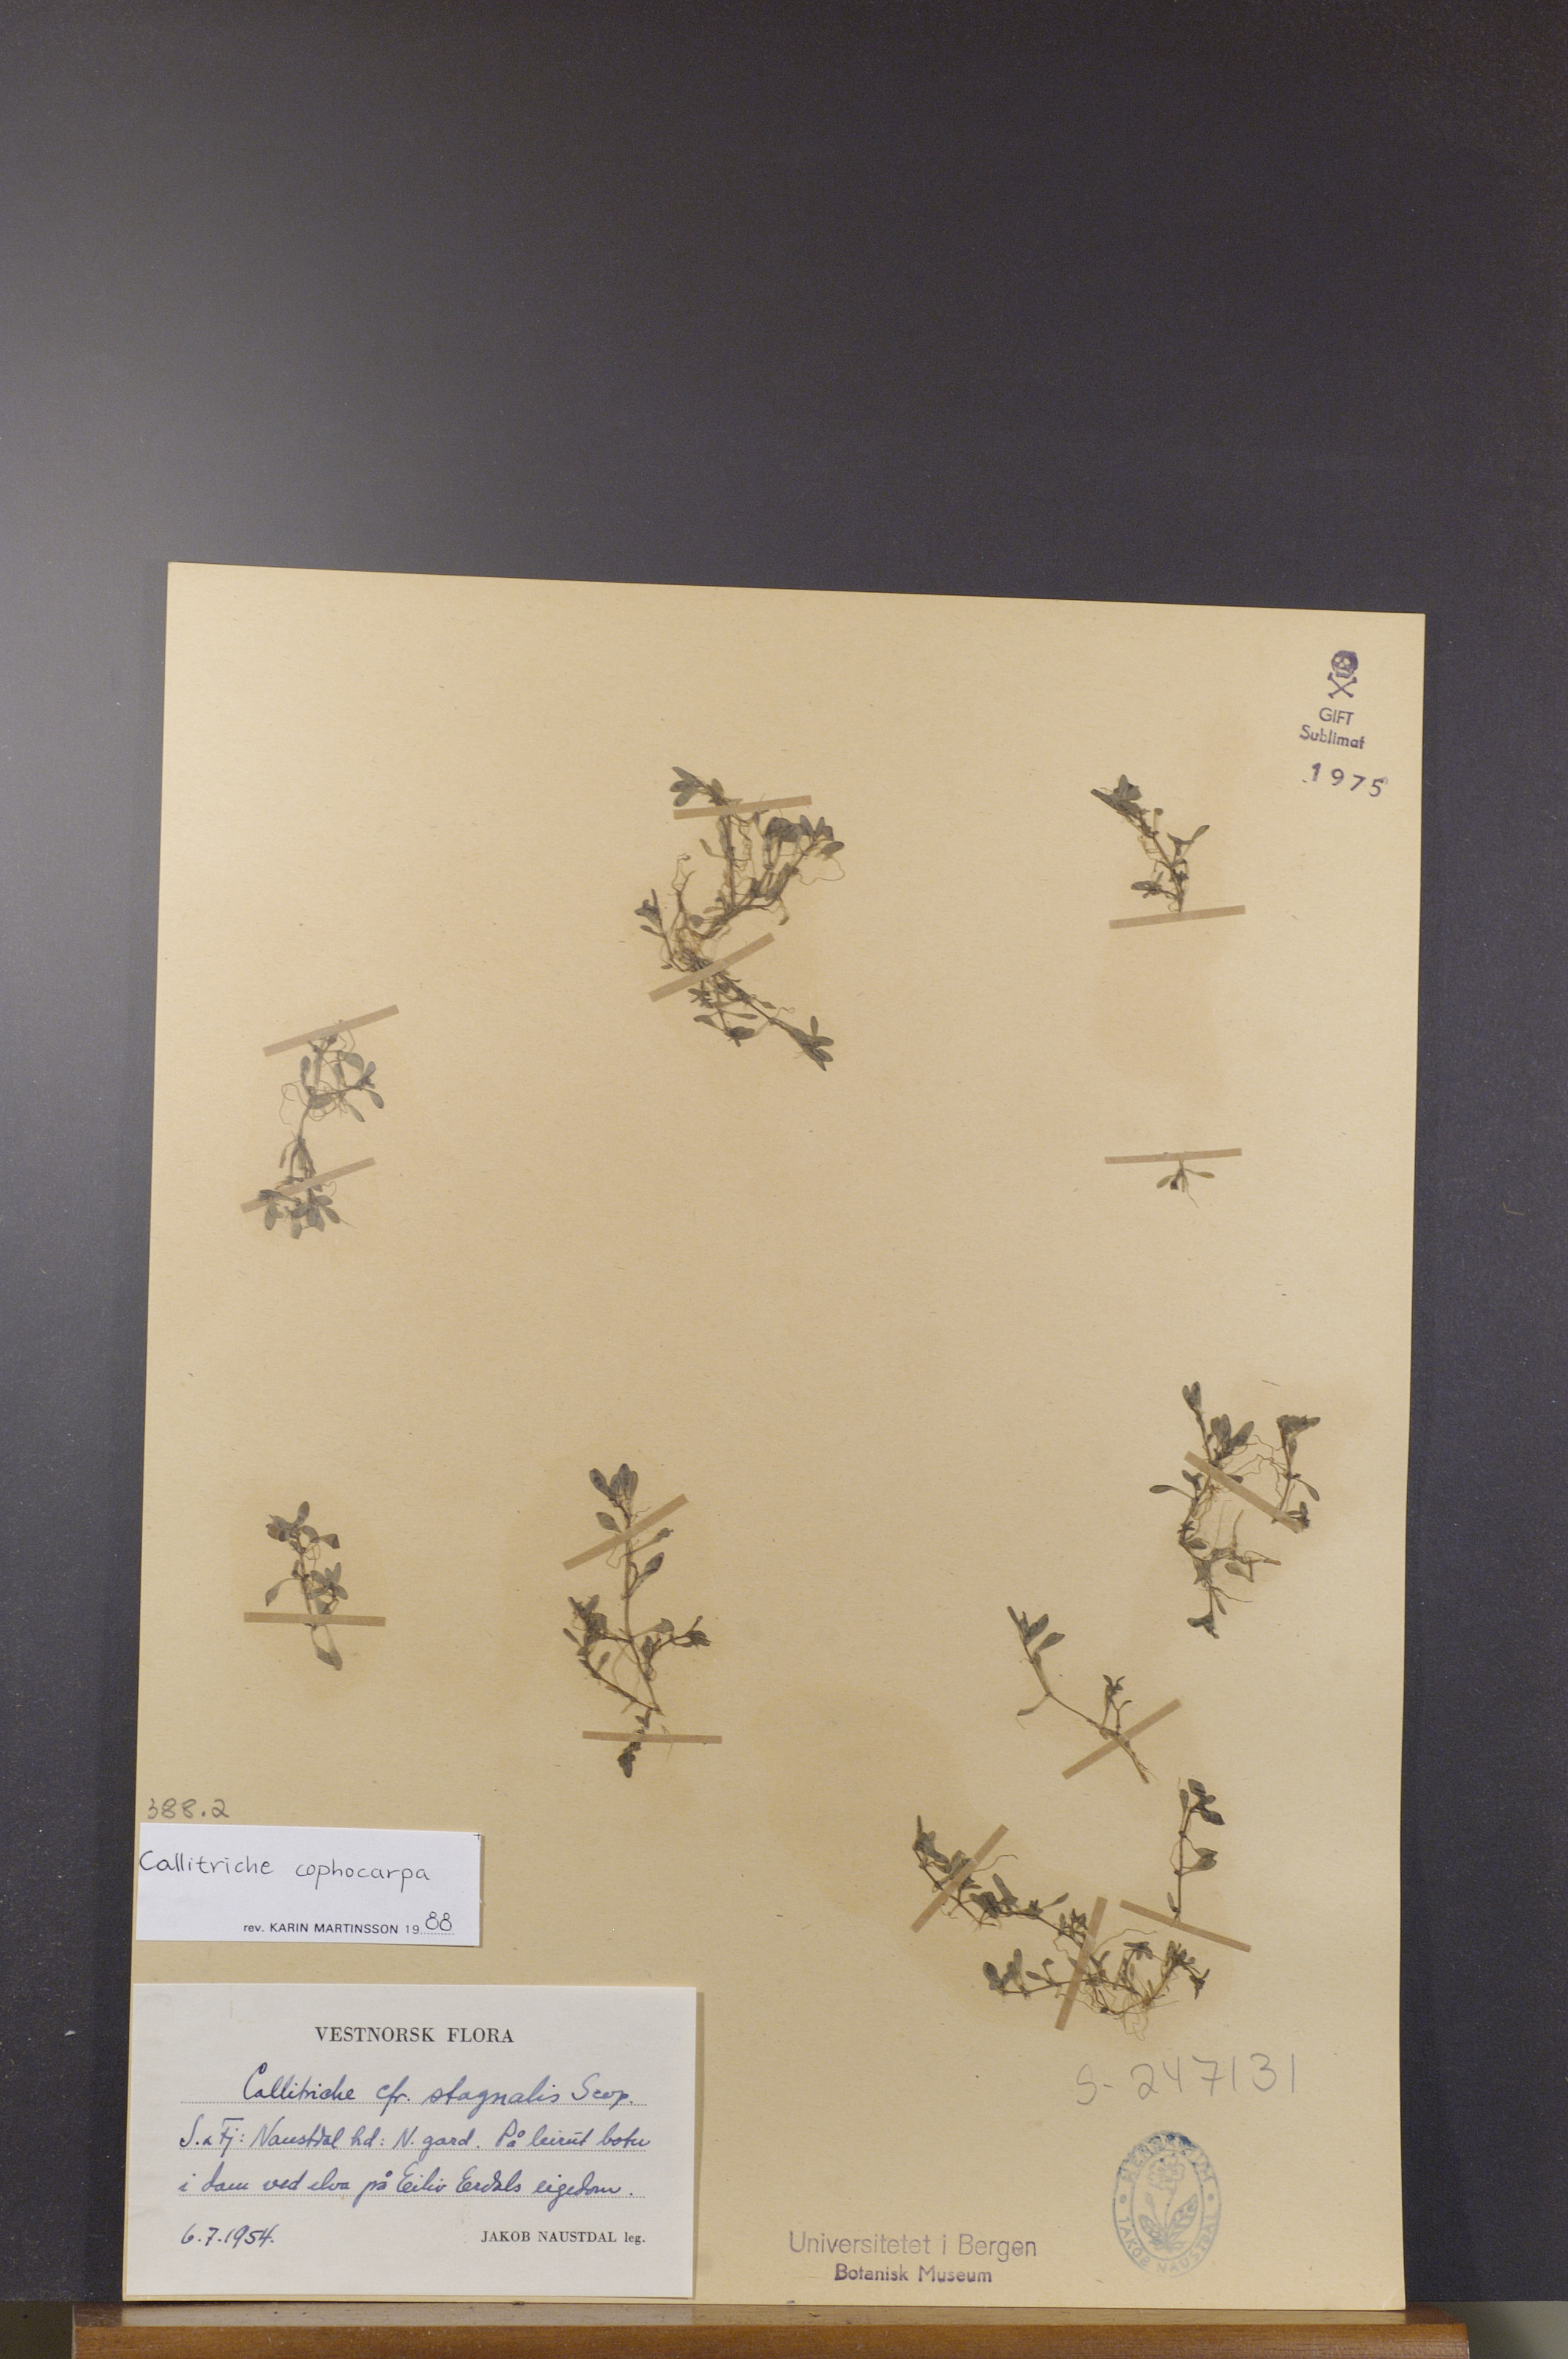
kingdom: Plantae
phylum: Tracheophyta
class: Magnoliopsida
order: Lamiales
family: Plantaginaceae
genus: Callitriche
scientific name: Callitriche stagnalis
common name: Common water-starwort
